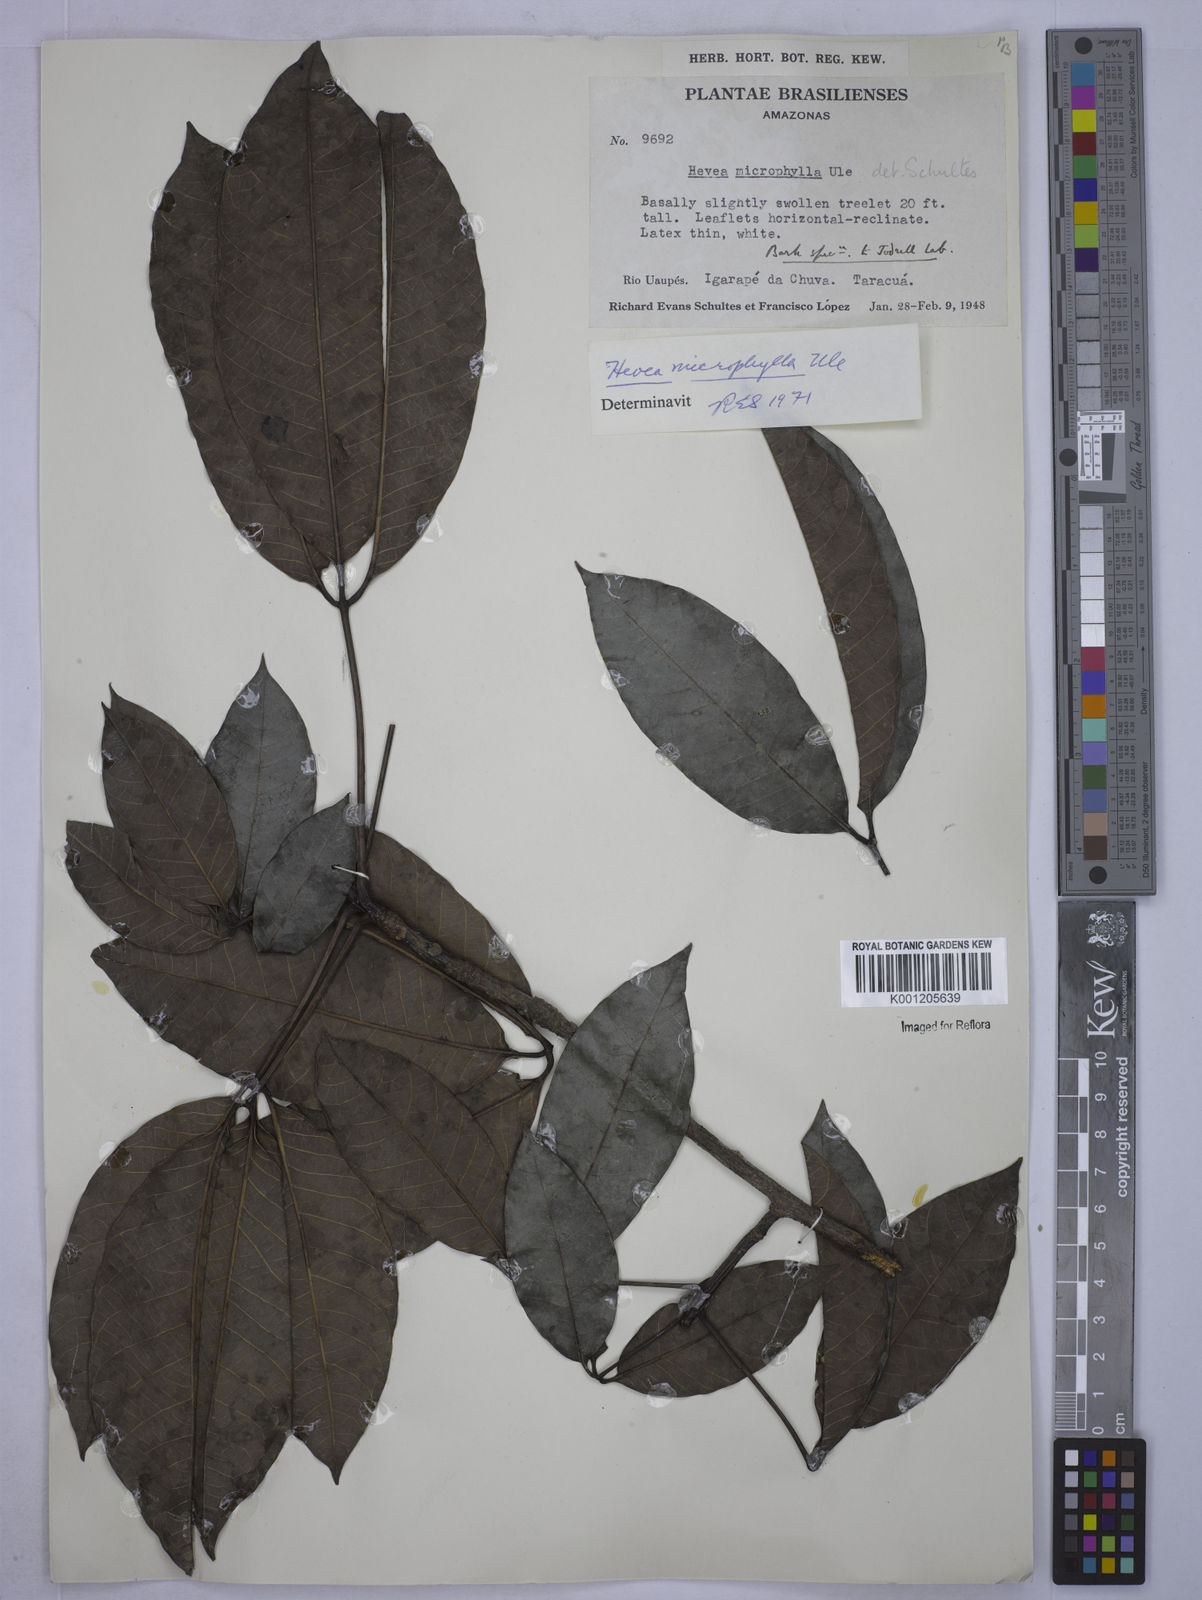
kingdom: Plantae
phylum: Tracheophyta
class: Magnoliopsida
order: Malpighiales
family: Euphorbiaceae
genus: Hevea
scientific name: Hevea microphylla
